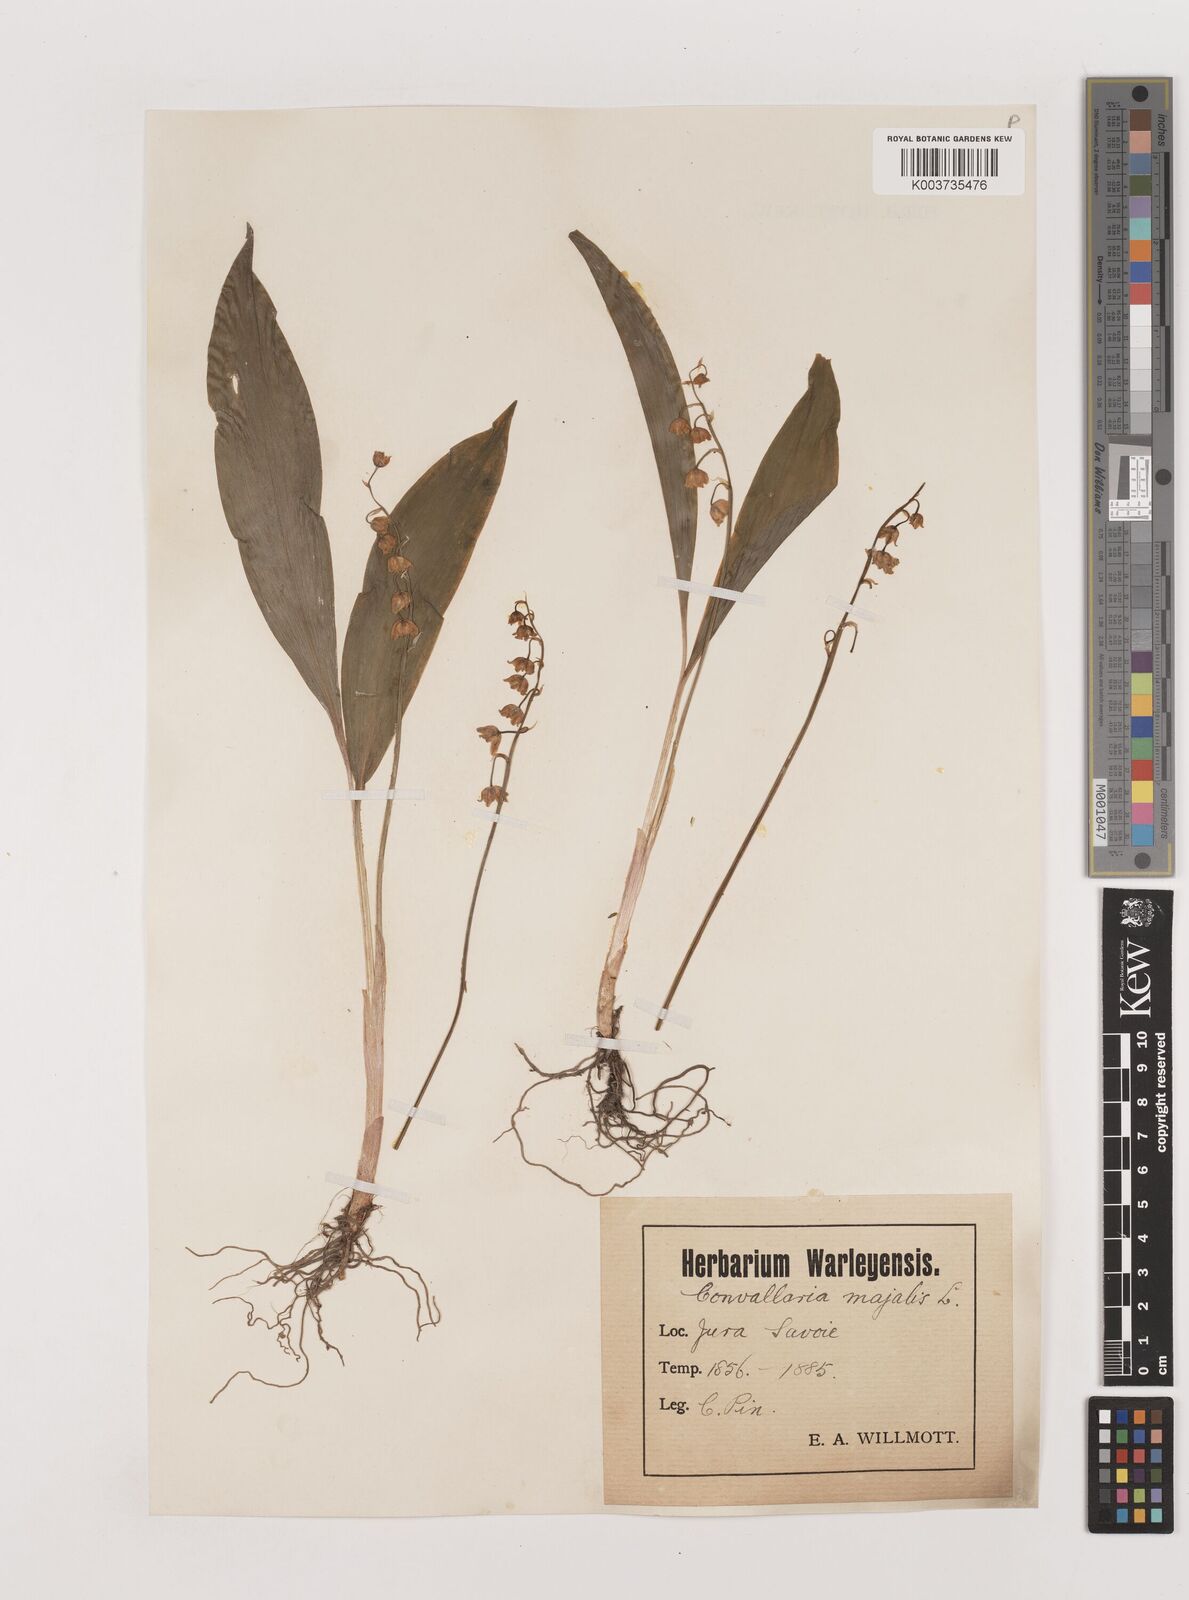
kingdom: Plantae
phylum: Tracheophyta
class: Liliopsida
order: Asparagales
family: Asparagaceae
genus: Convallaria
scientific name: Convallaria majalis
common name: Lily-of-the-valley
